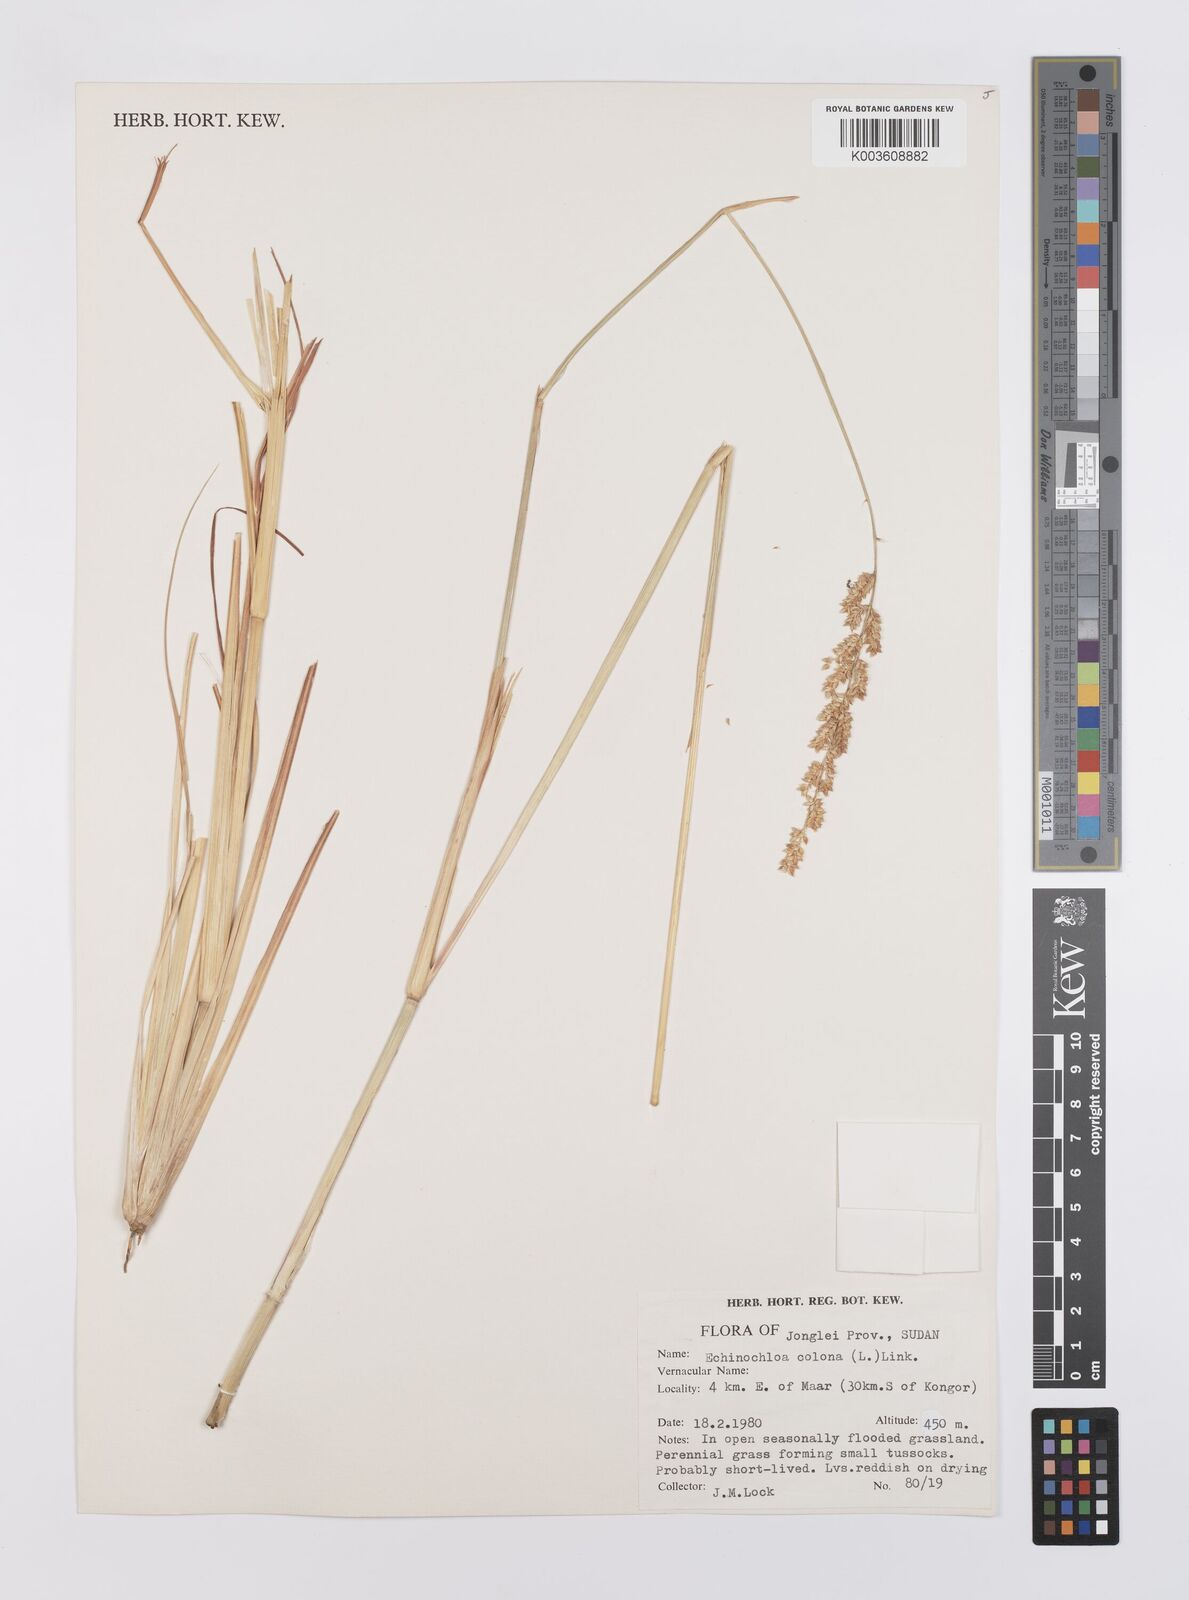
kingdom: Plantae
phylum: Tracheophyta
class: Liliopsida
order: Poales
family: Poaceae
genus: Echinochloa
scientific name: Echinochloa colonum
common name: Jungle rice
